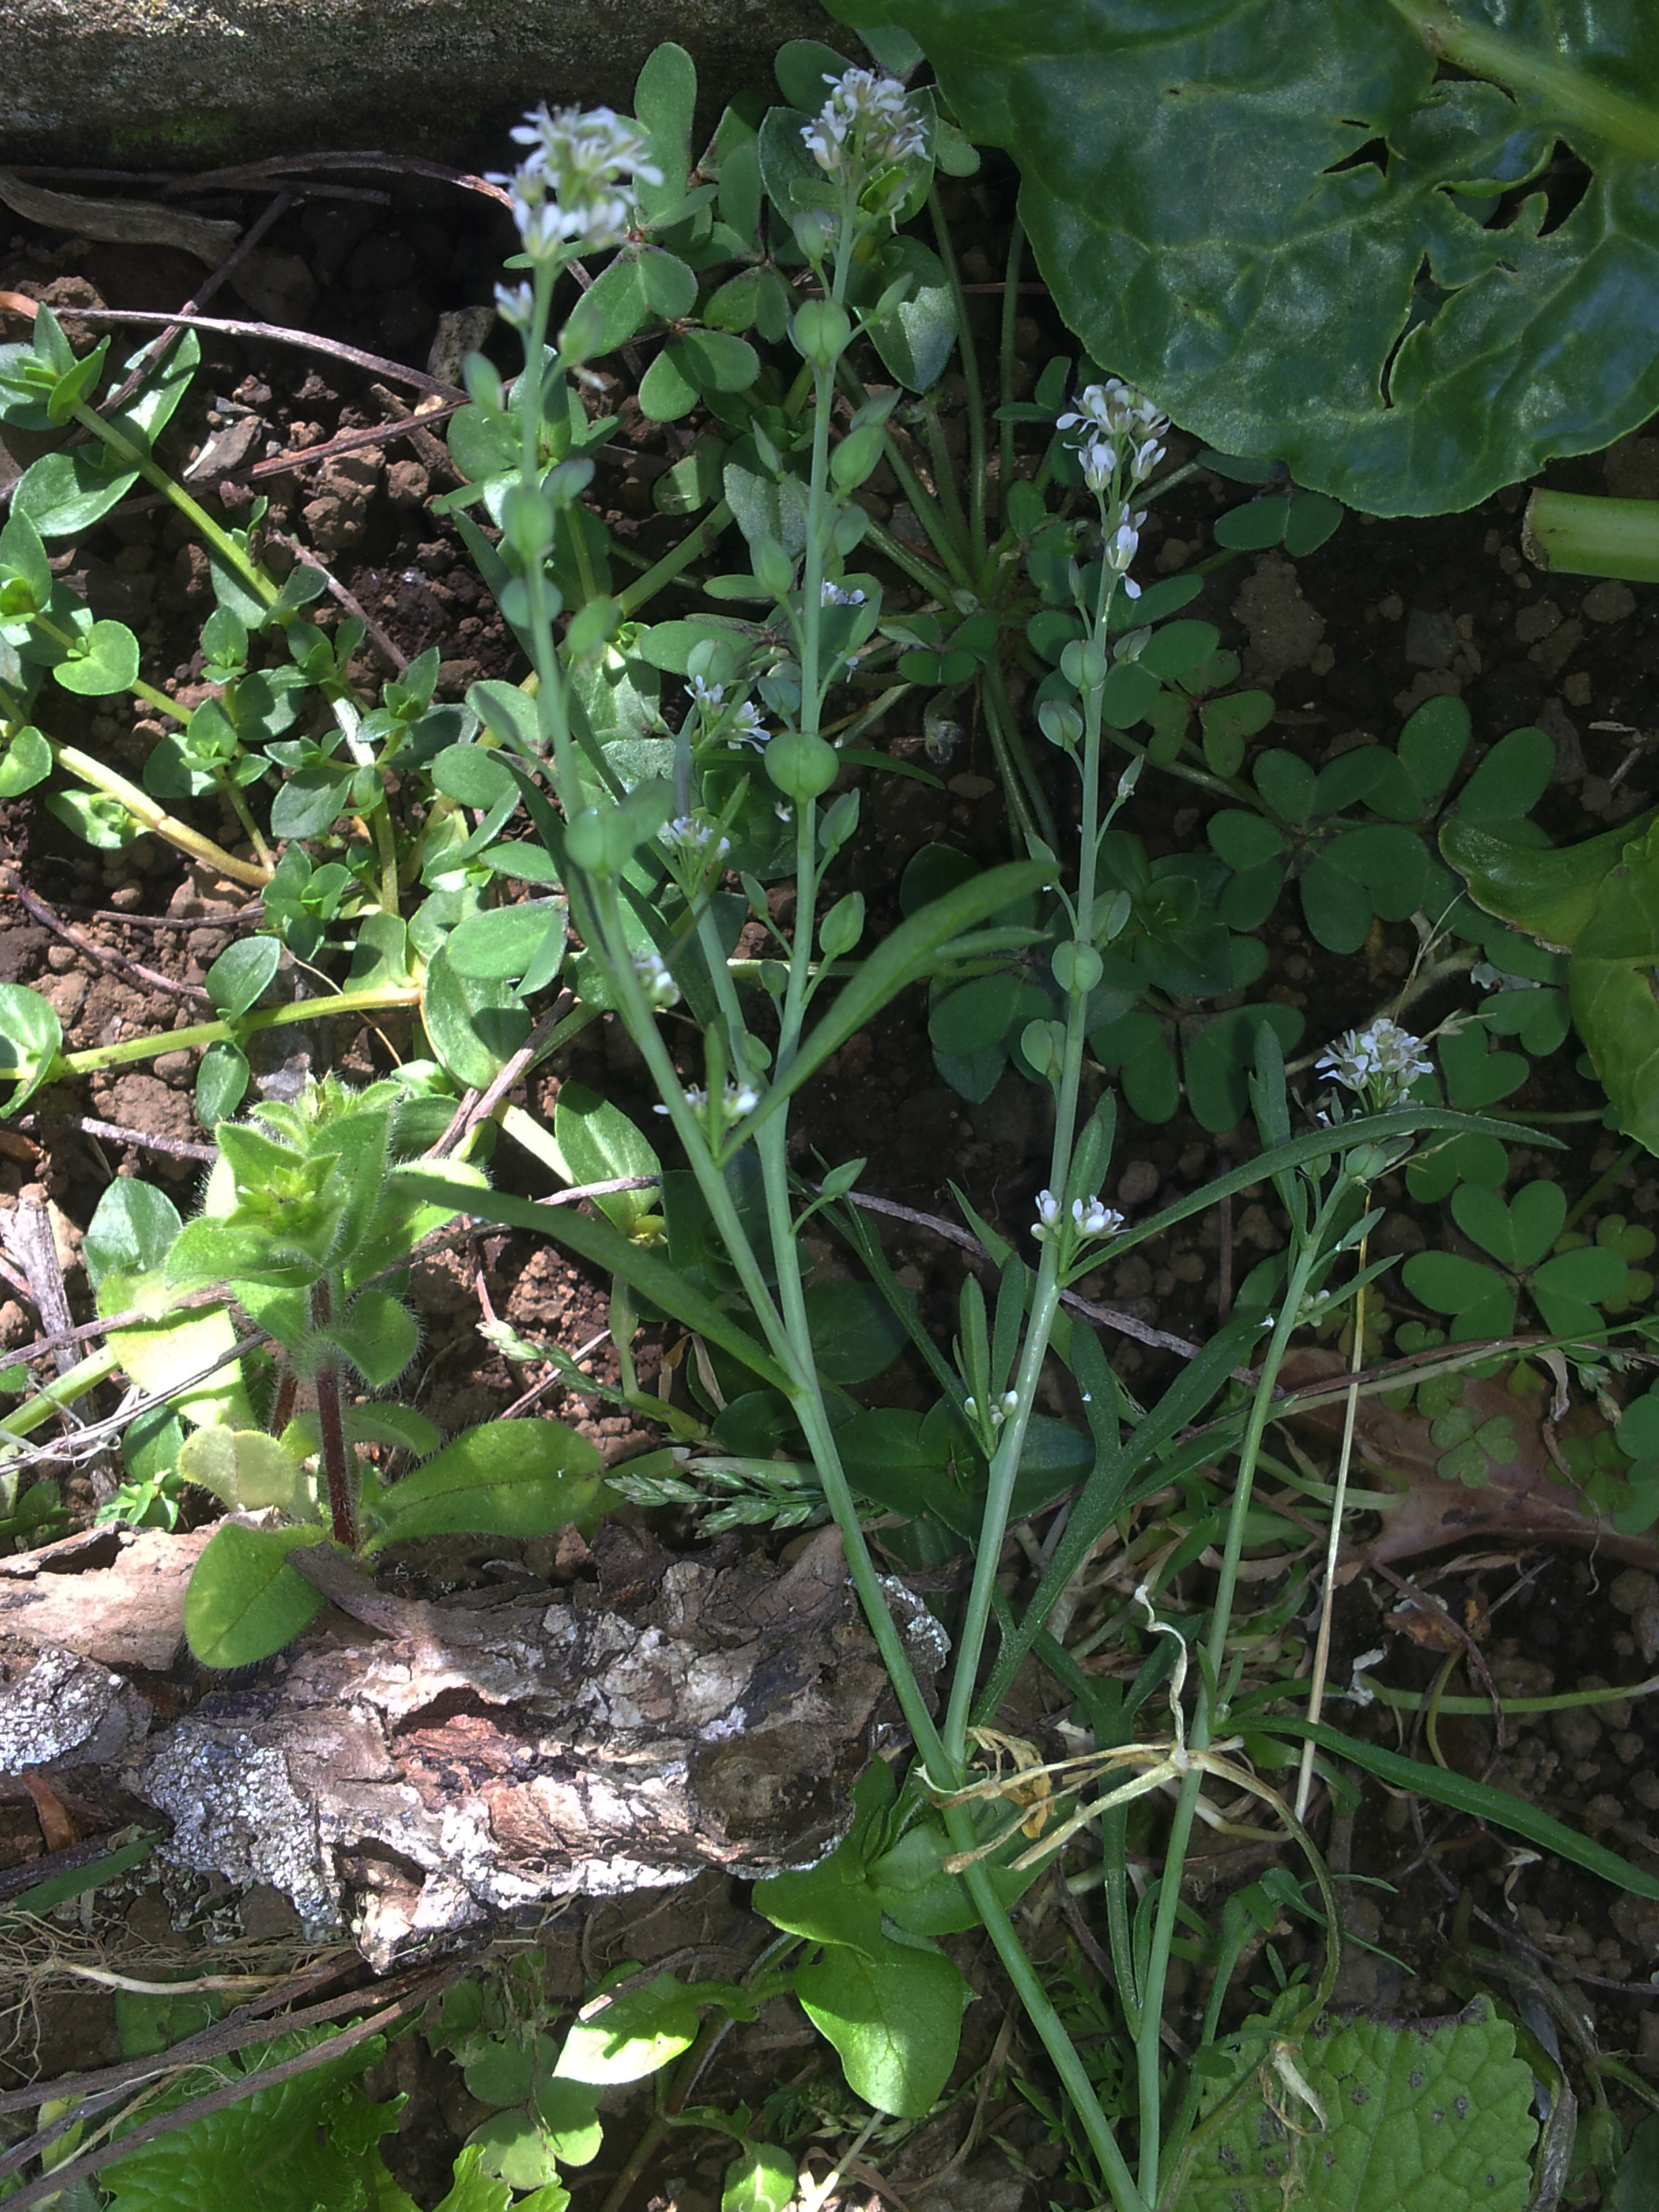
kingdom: Plantae
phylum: Tracheophyta
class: Magnoliopsida
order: Brassicales
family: Brassicaceae
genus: Lepidium
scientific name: Lepidium sativum
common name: Garden cress
